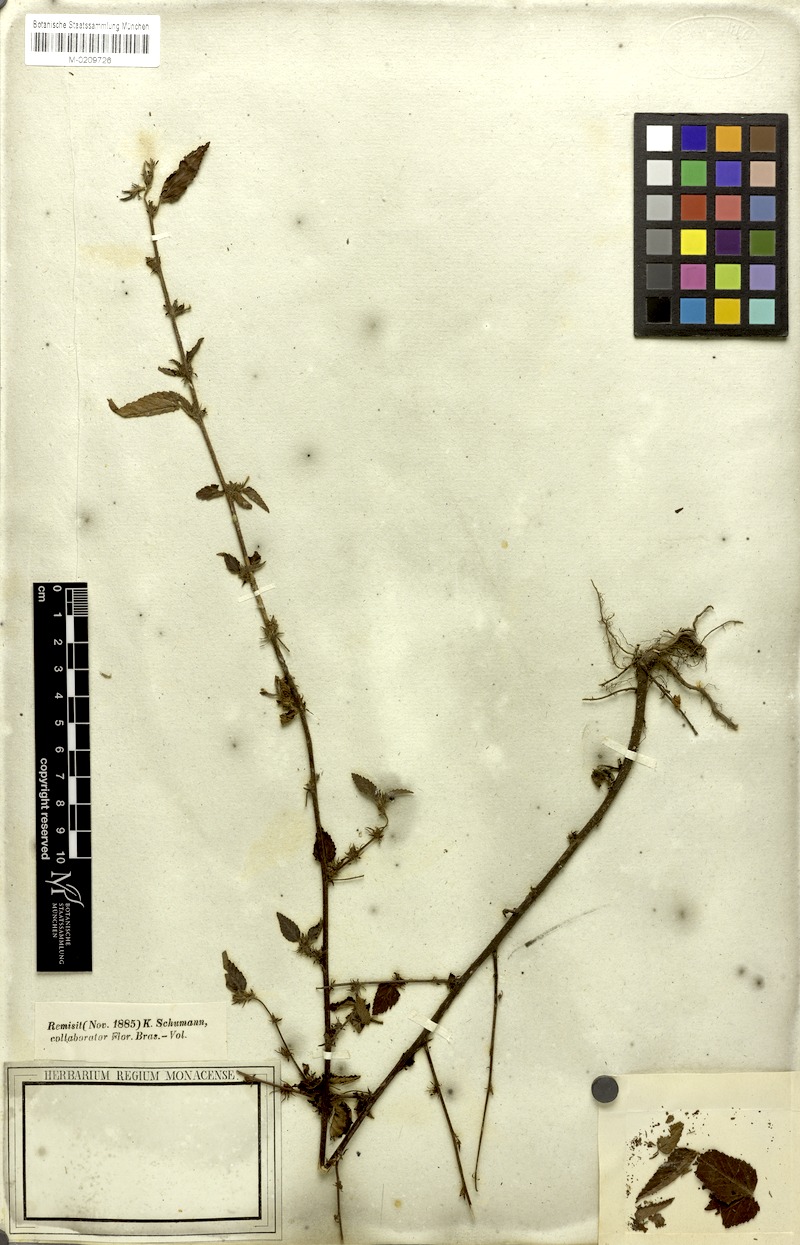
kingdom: Plantae
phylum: Tracheophyta
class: Magnoliopsida
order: Malvales
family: Malvaceae
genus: Melochia
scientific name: Melochia melissifolia
